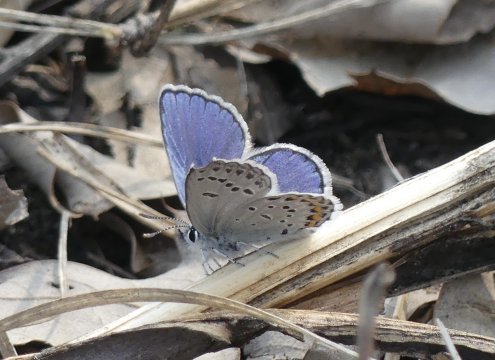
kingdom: Animalia
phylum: Arthropoda
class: Insecta
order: Lepidoptera
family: Lycaenidae
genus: Plebejus
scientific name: Plebejus samuelis
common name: Karner Blue
